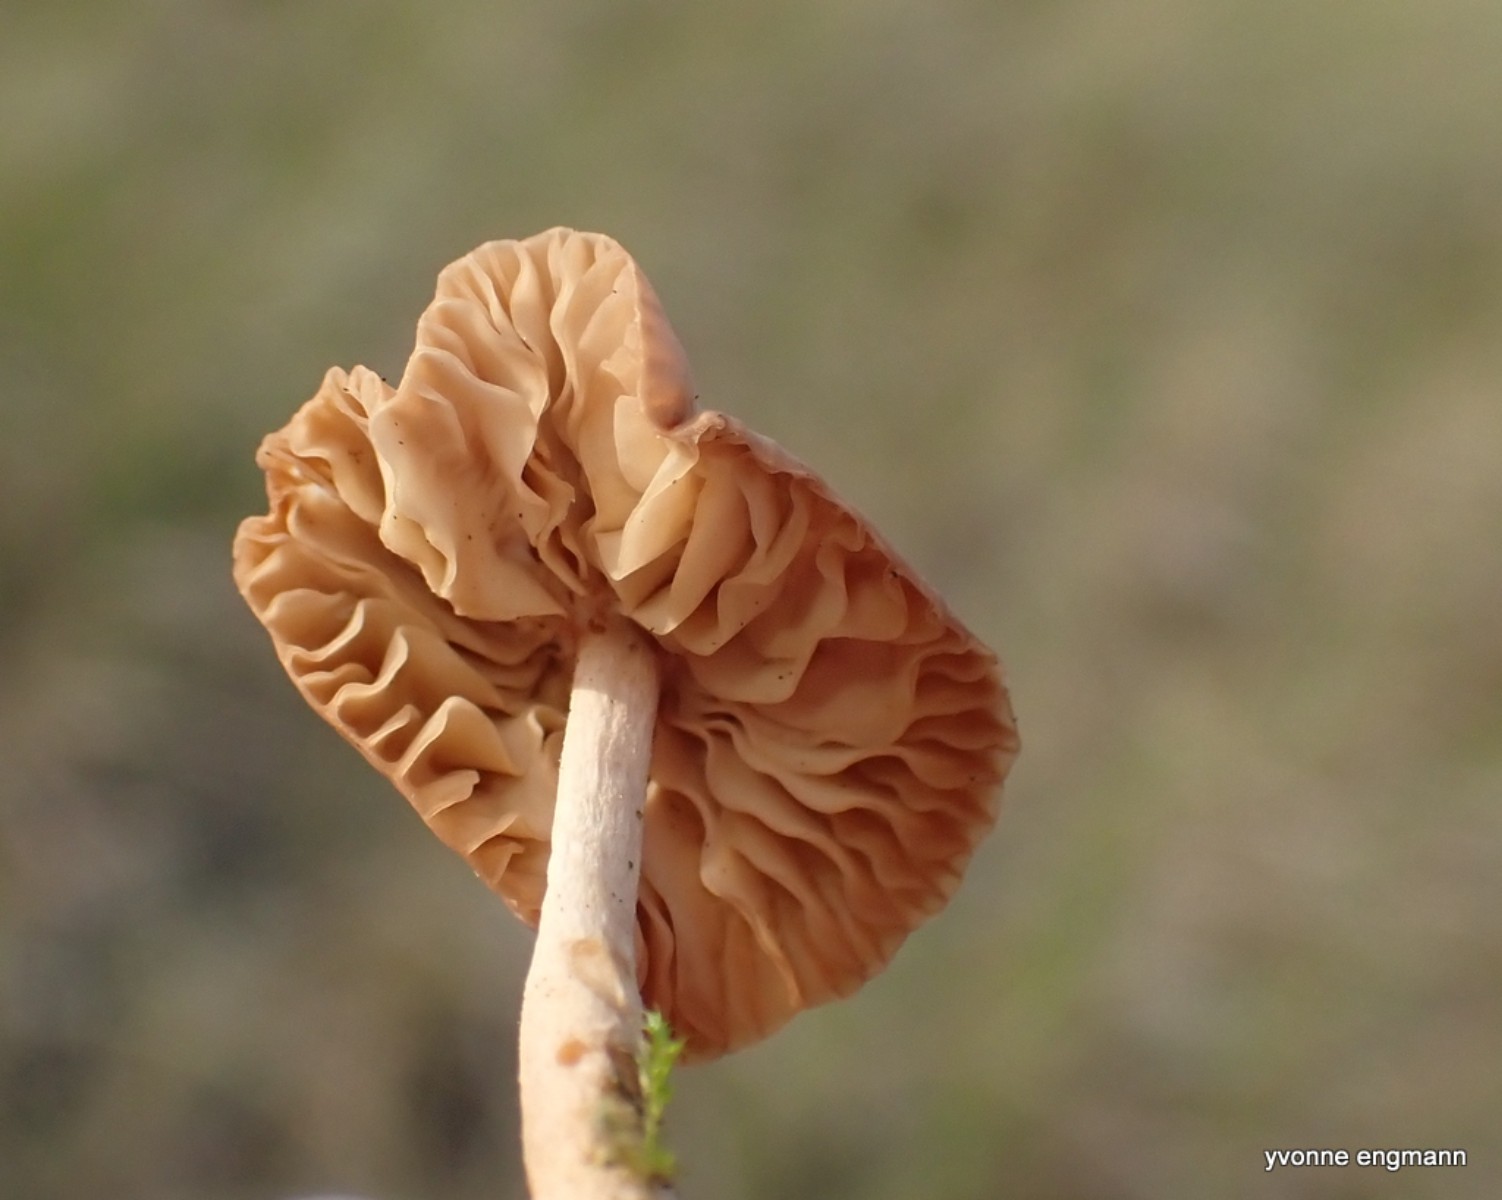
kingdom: Fungi
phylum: Basidiomycota
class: Agaricomycetes
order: Agaricales
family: Marasmiaceae
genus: Marasmius
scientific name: Marasmius oreades
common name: elledans-bruskhat
